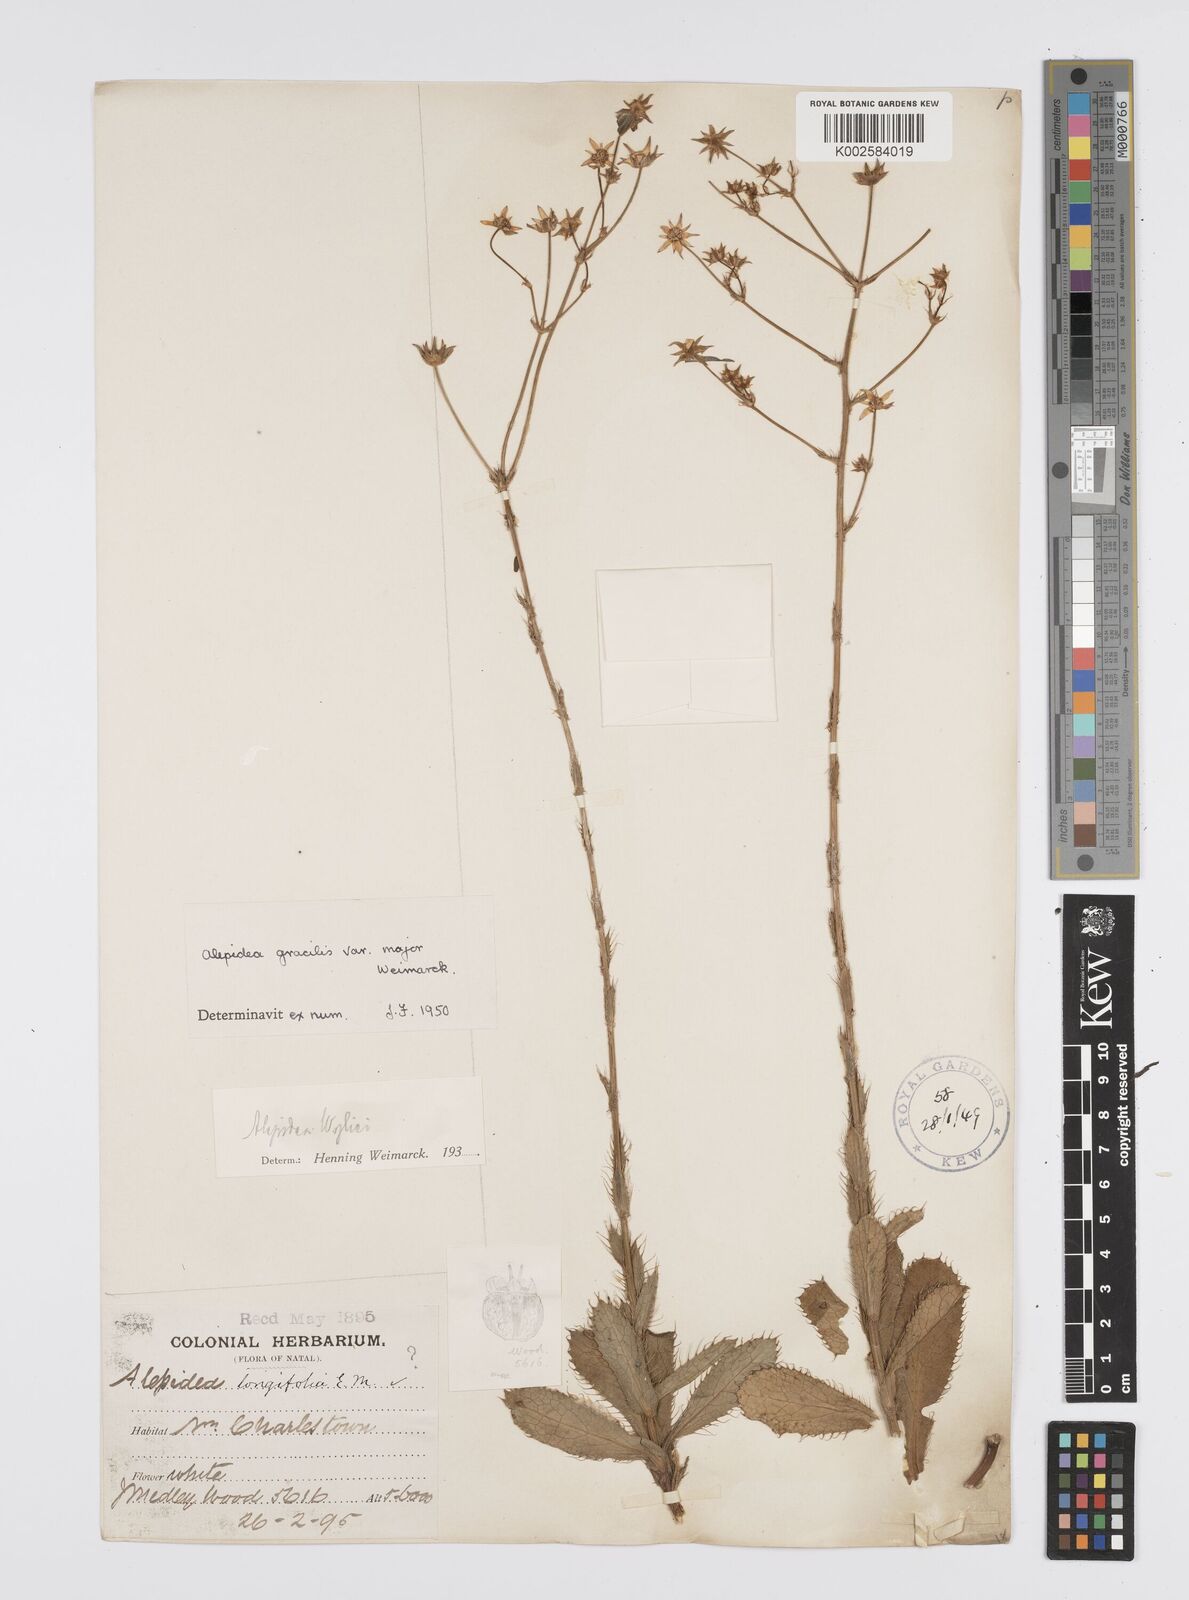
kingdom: Plantae
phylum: Tracheophyta
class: Magnoliopsida
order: Apiales
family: Apiaceae
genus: Alepidea
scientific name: Alepidea
